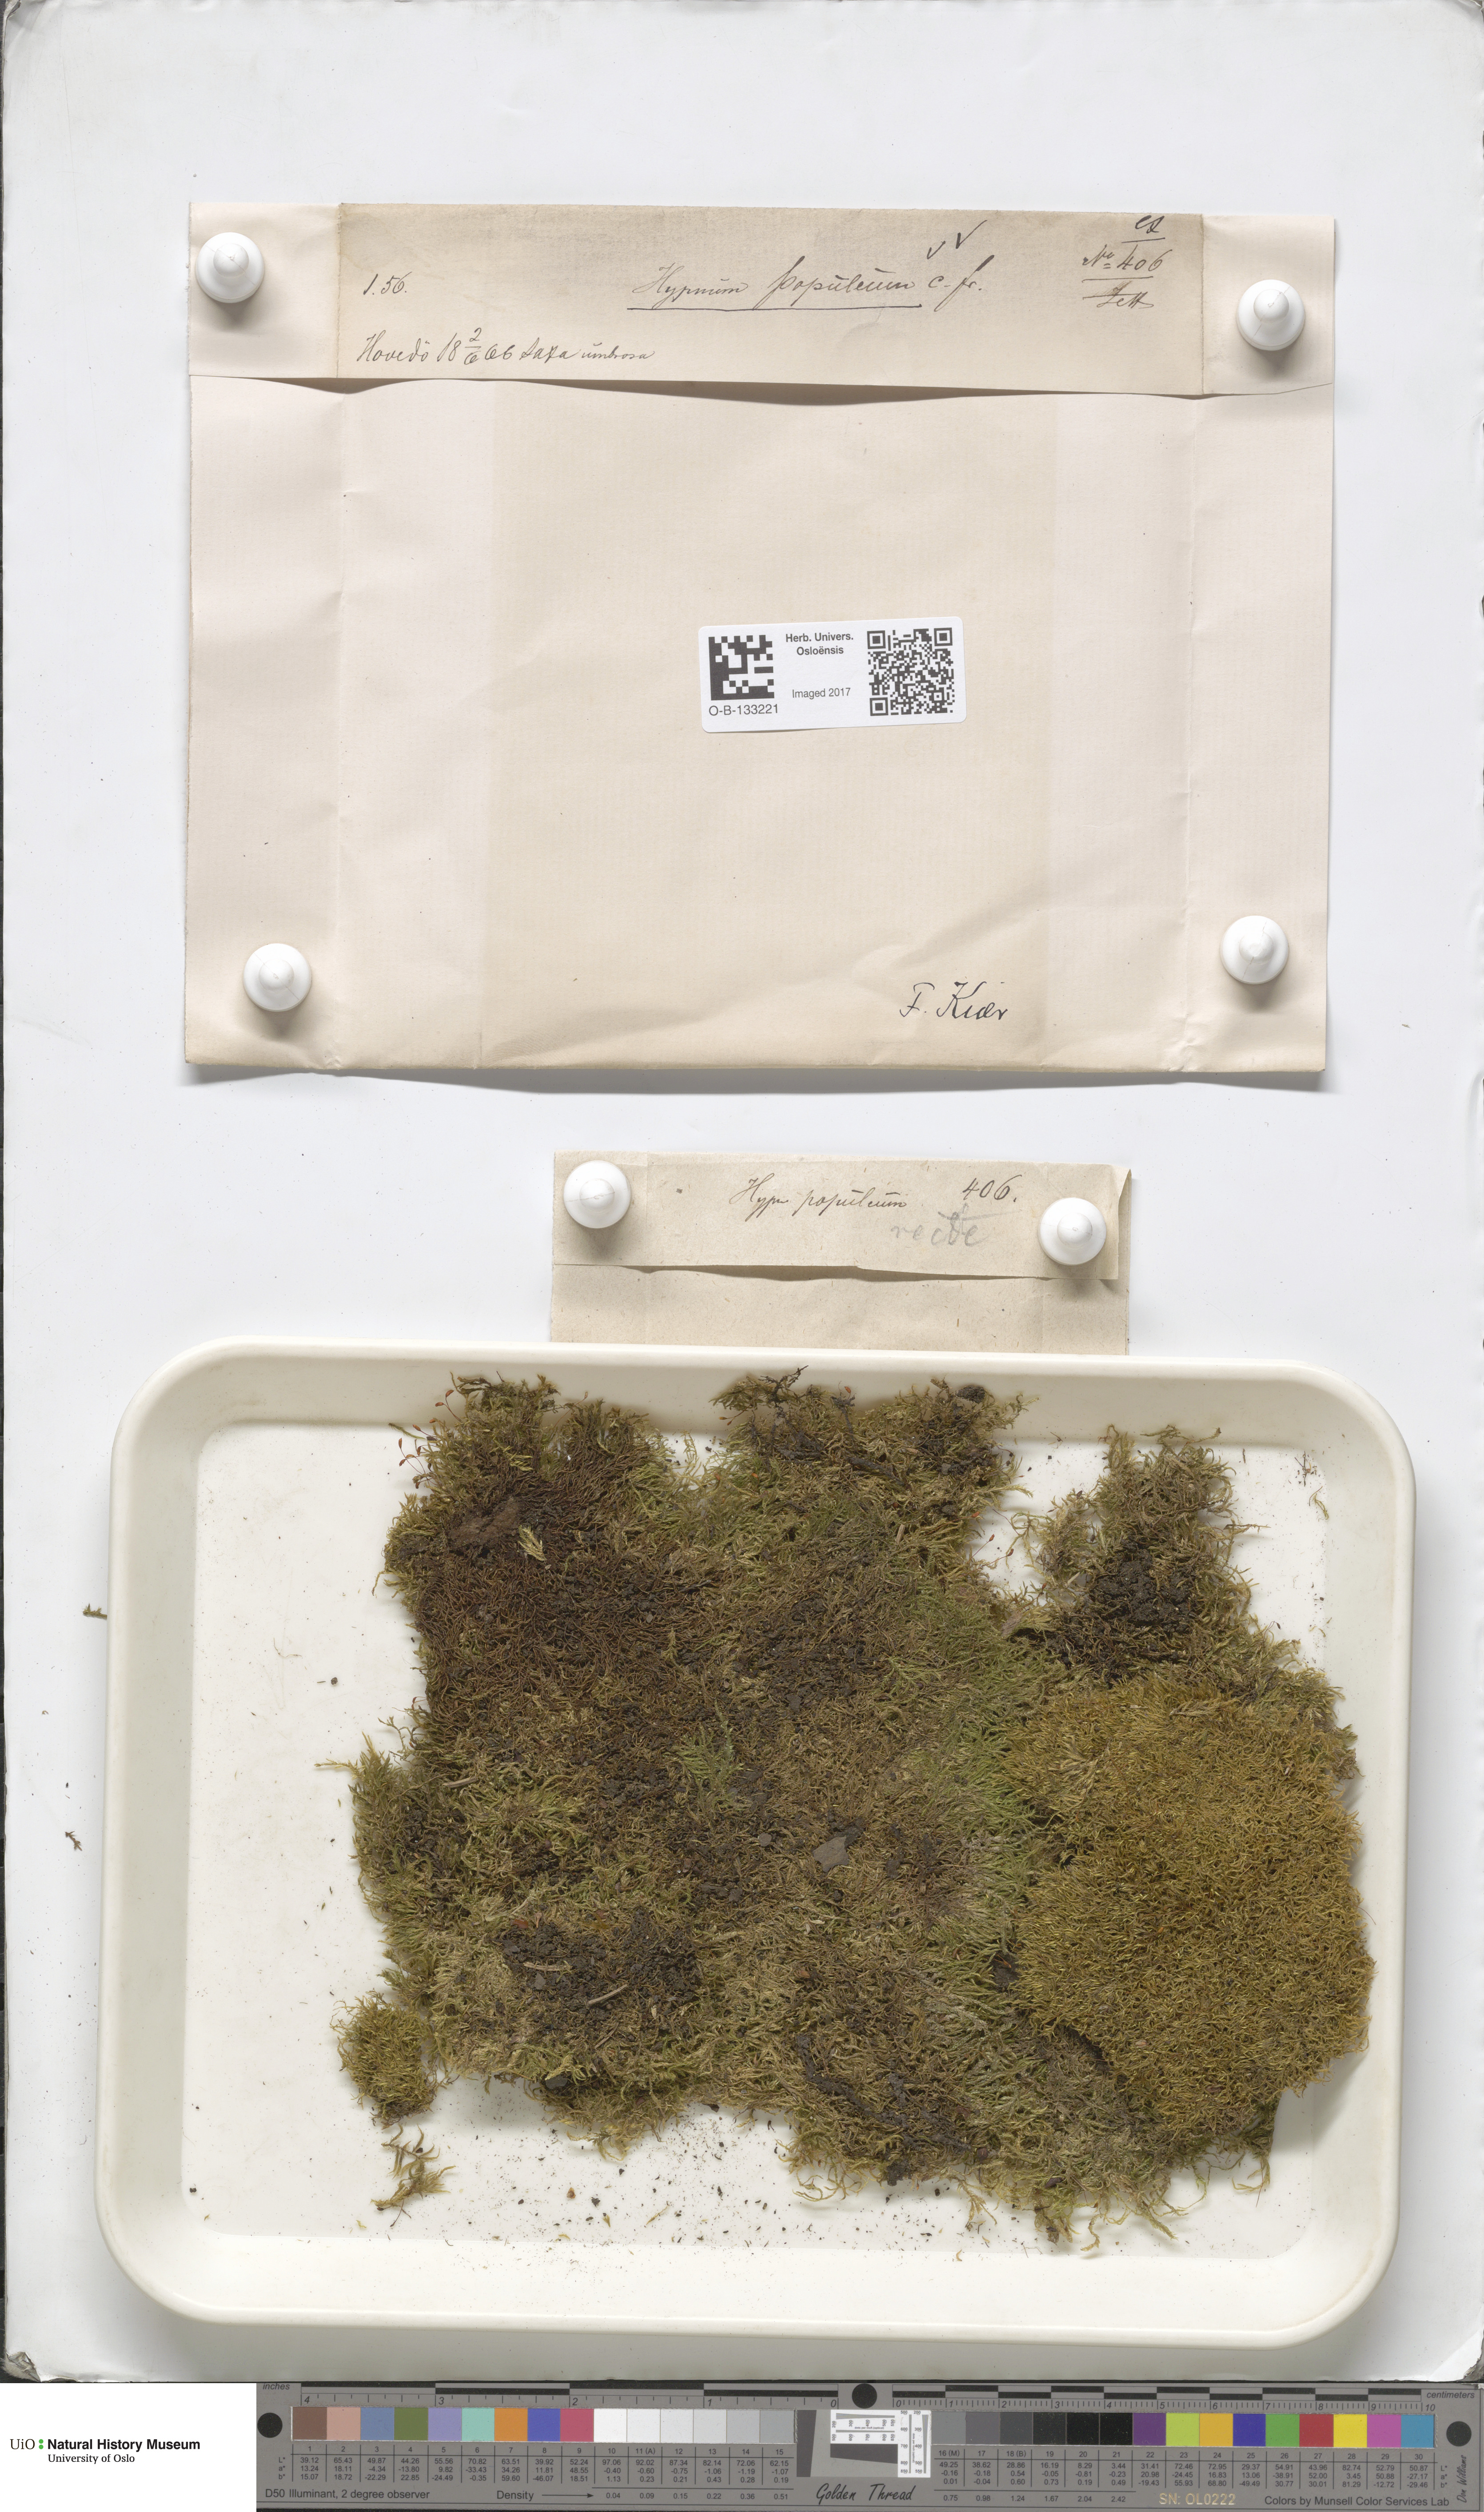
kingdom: Plantae
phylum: Bryophyta
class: Bryopsida
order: Hypnales
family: Brachytheciaceae
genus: Sciuro-hypnum
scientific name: Sciuro-hypnum plumosum
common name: Rusty feather-moss
